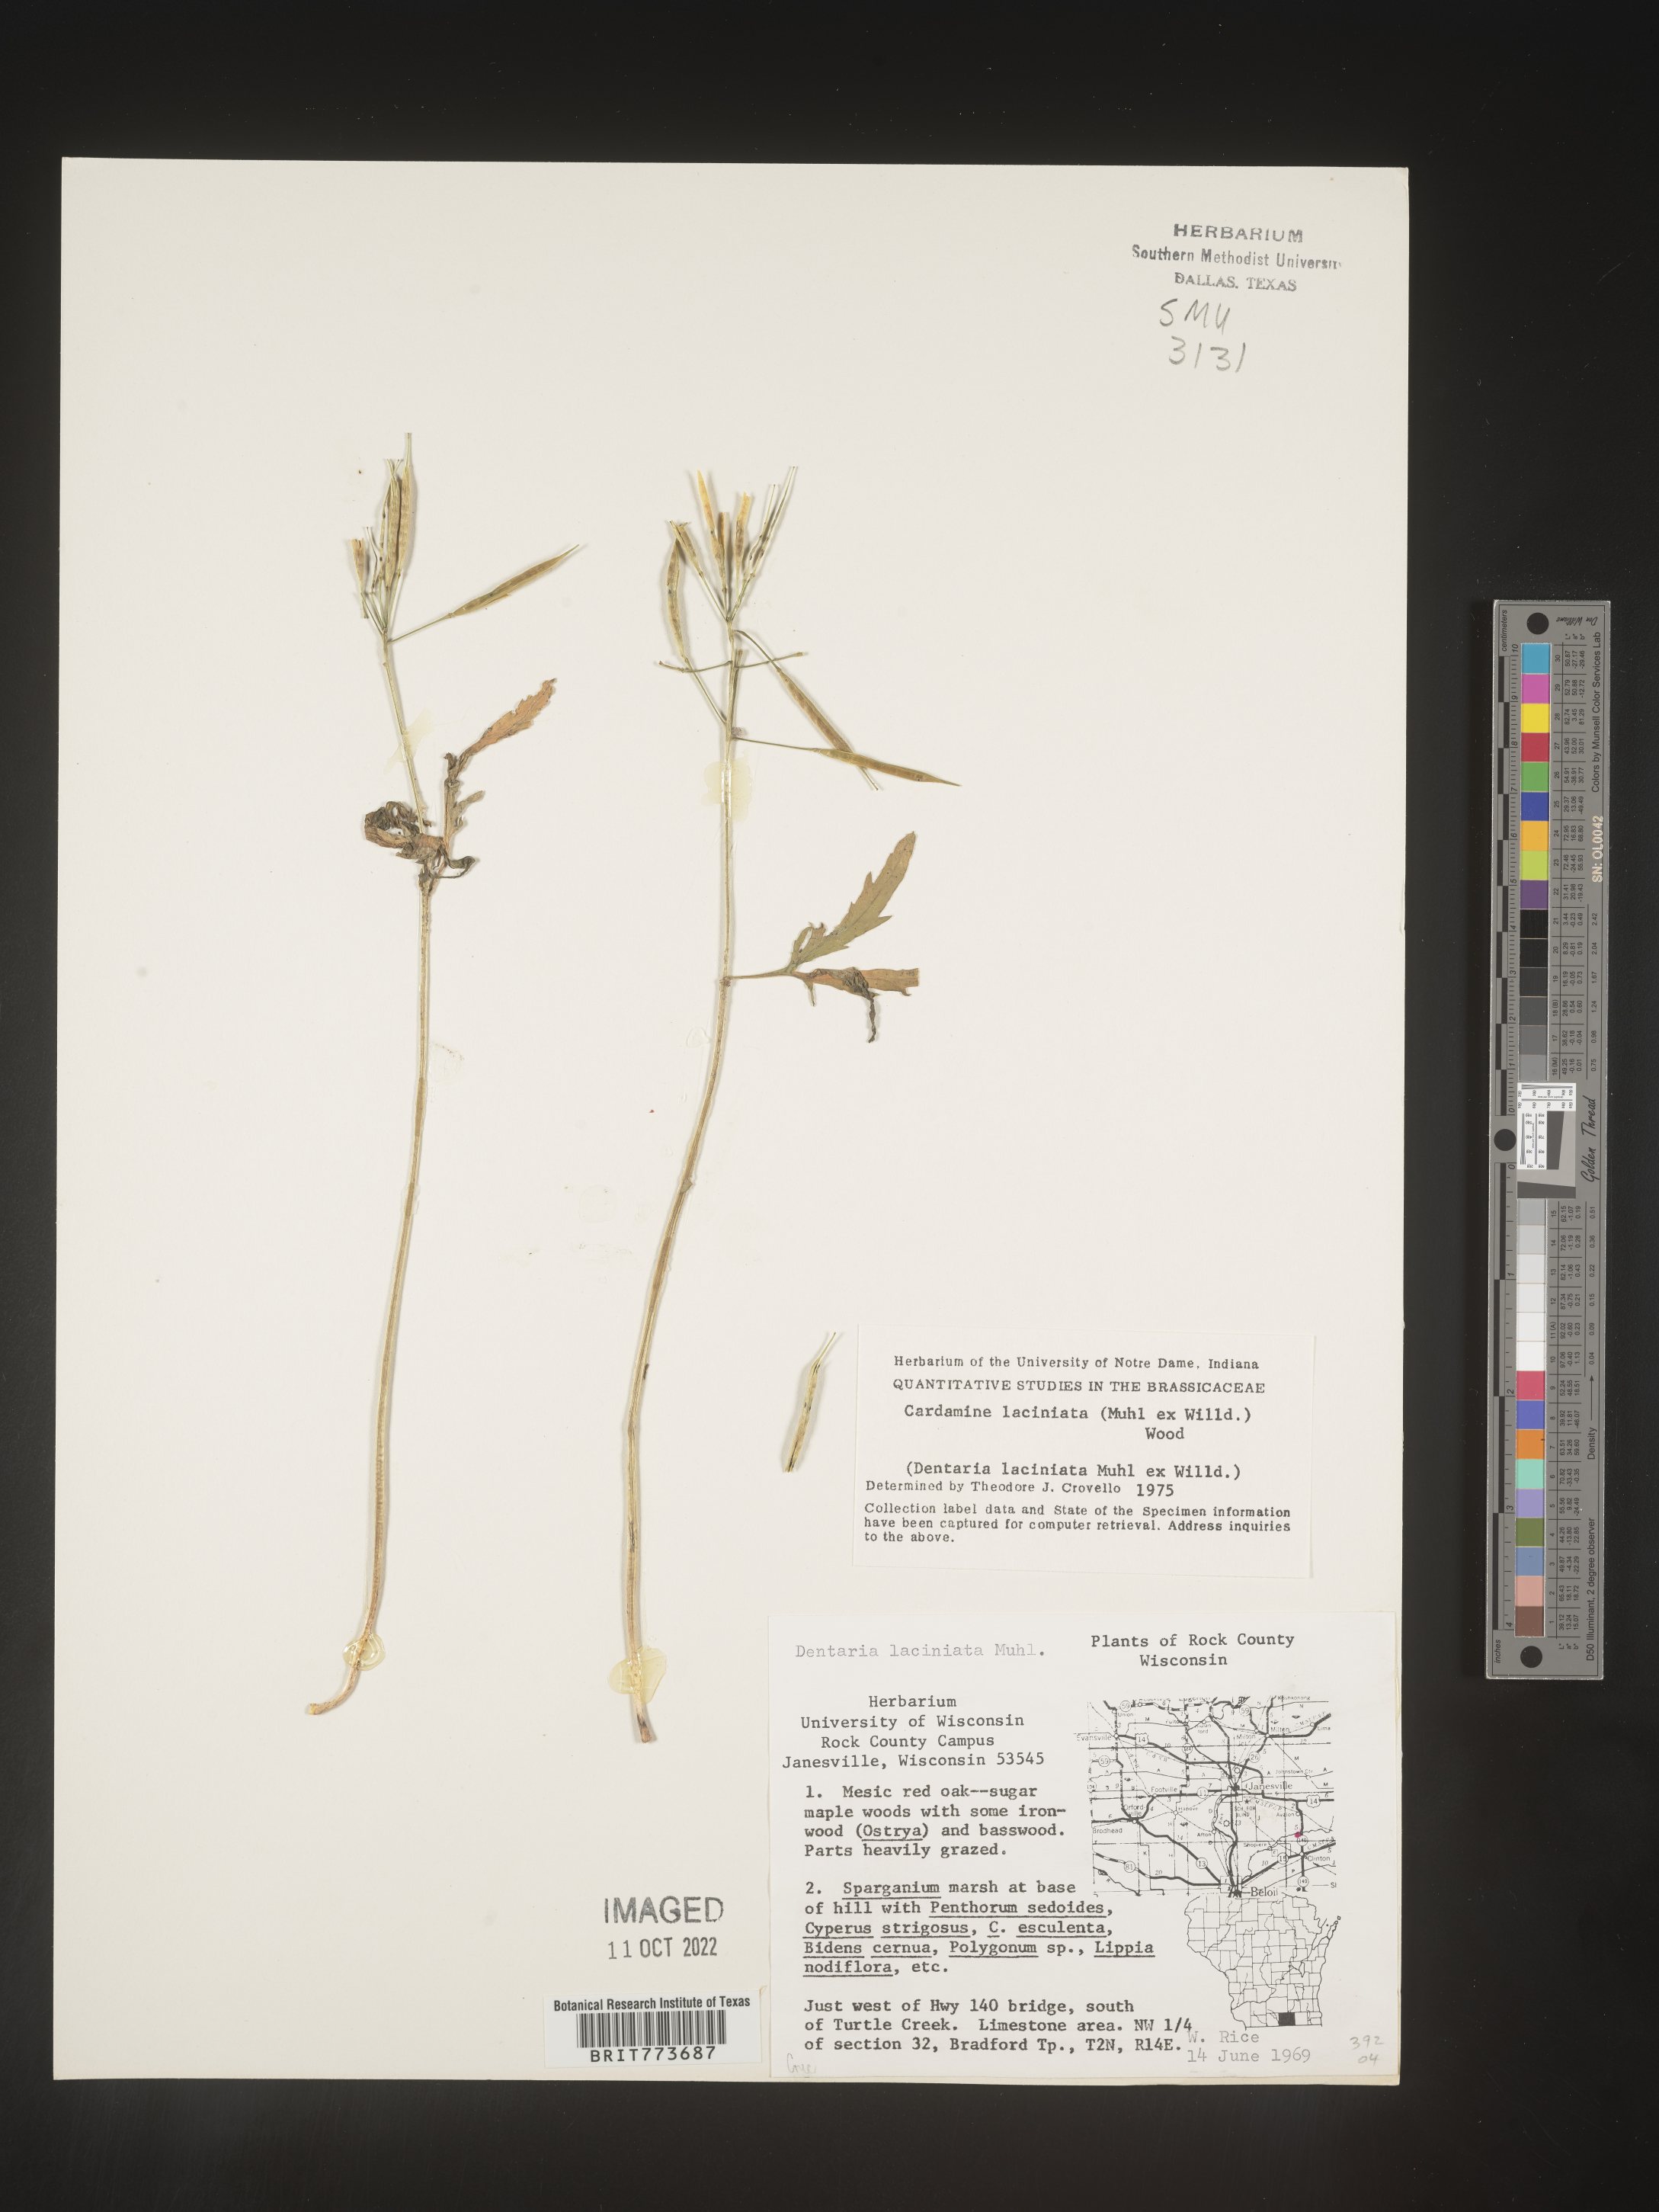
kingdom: Plantae
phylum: Tracheophyta
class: Magnoliopsida
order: Brassicales
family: Brassicaceae
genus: Rorippa
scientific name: Rorippa laciniata
